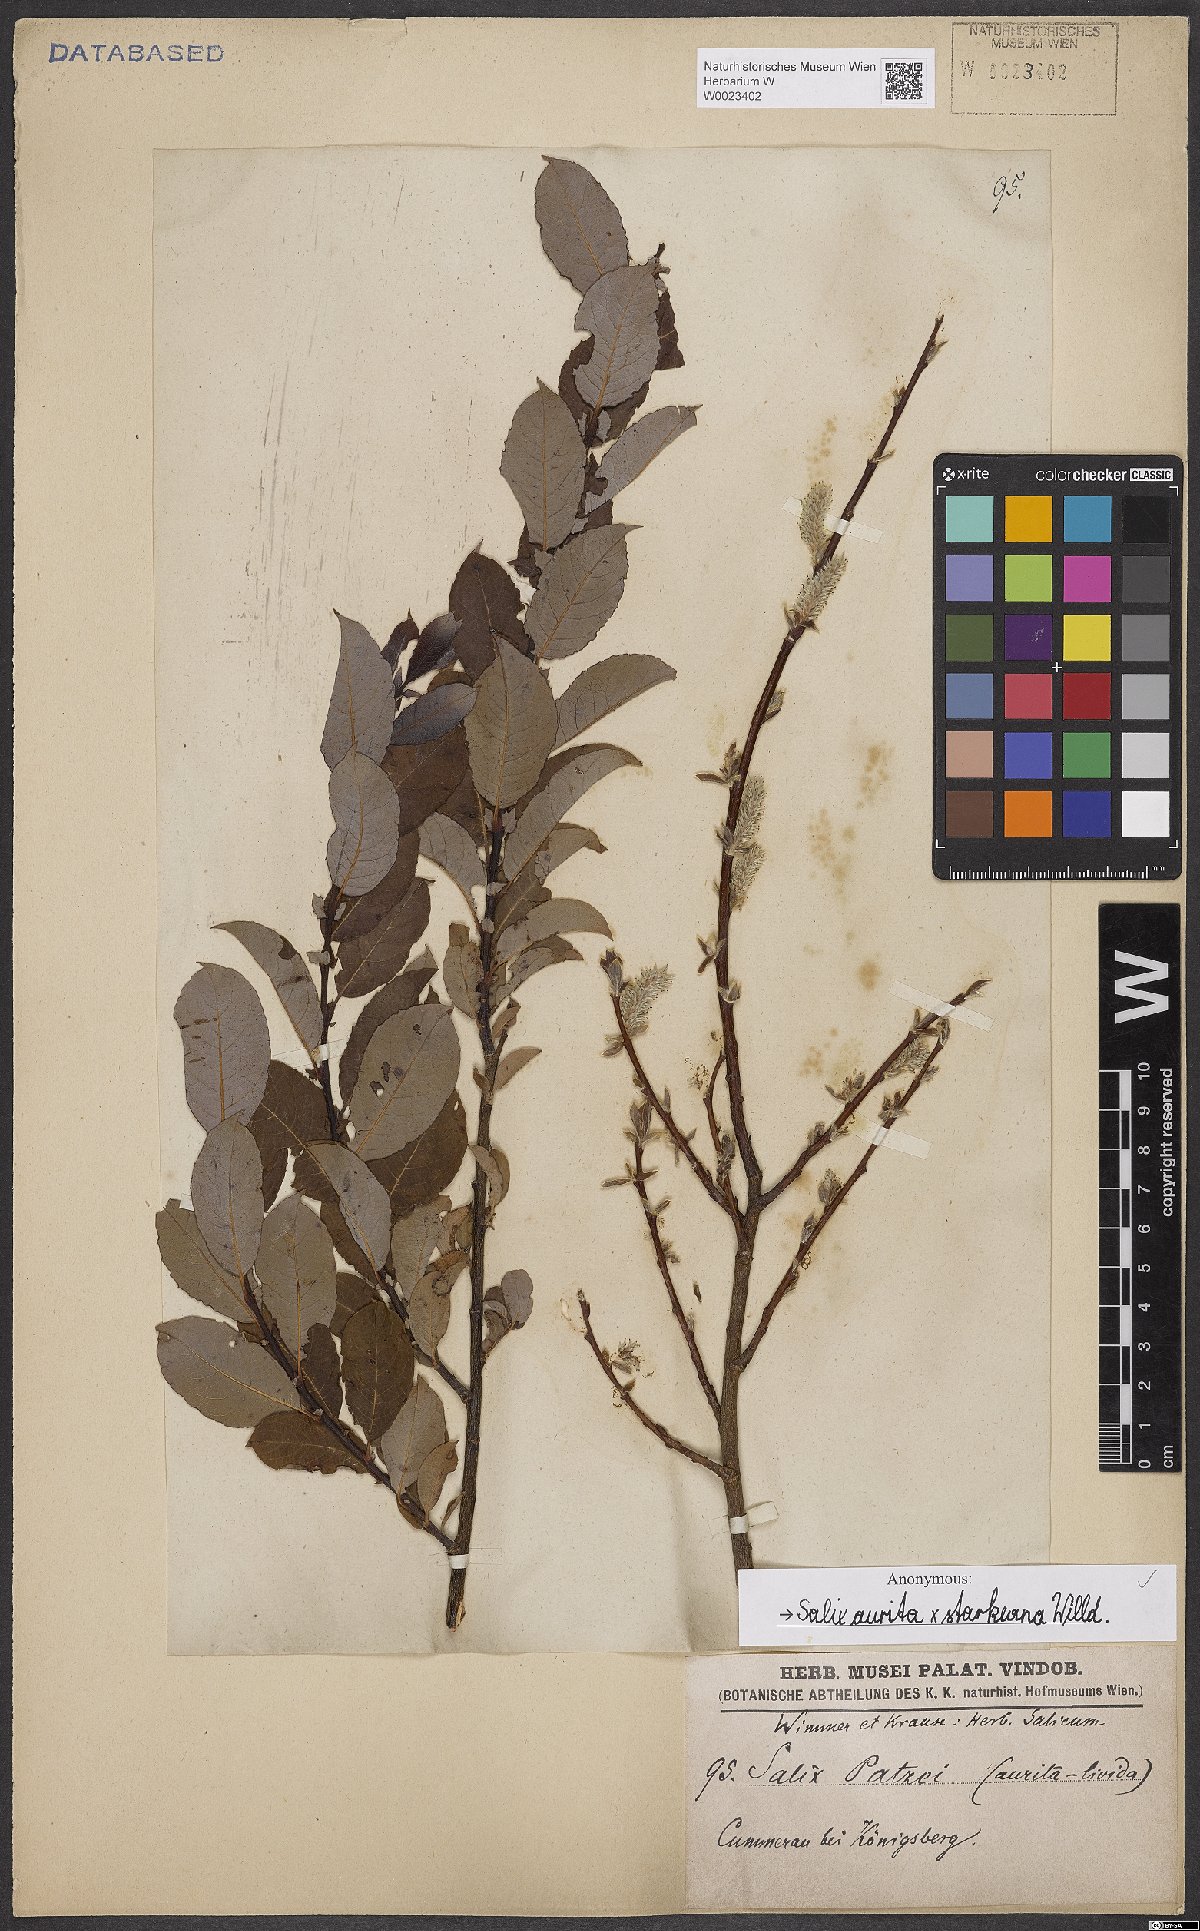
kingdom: Plantae
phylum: Tracheophyta
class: Magnoliopsida
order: Malpighiales
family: Salicaceae
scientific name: Salicaceae
